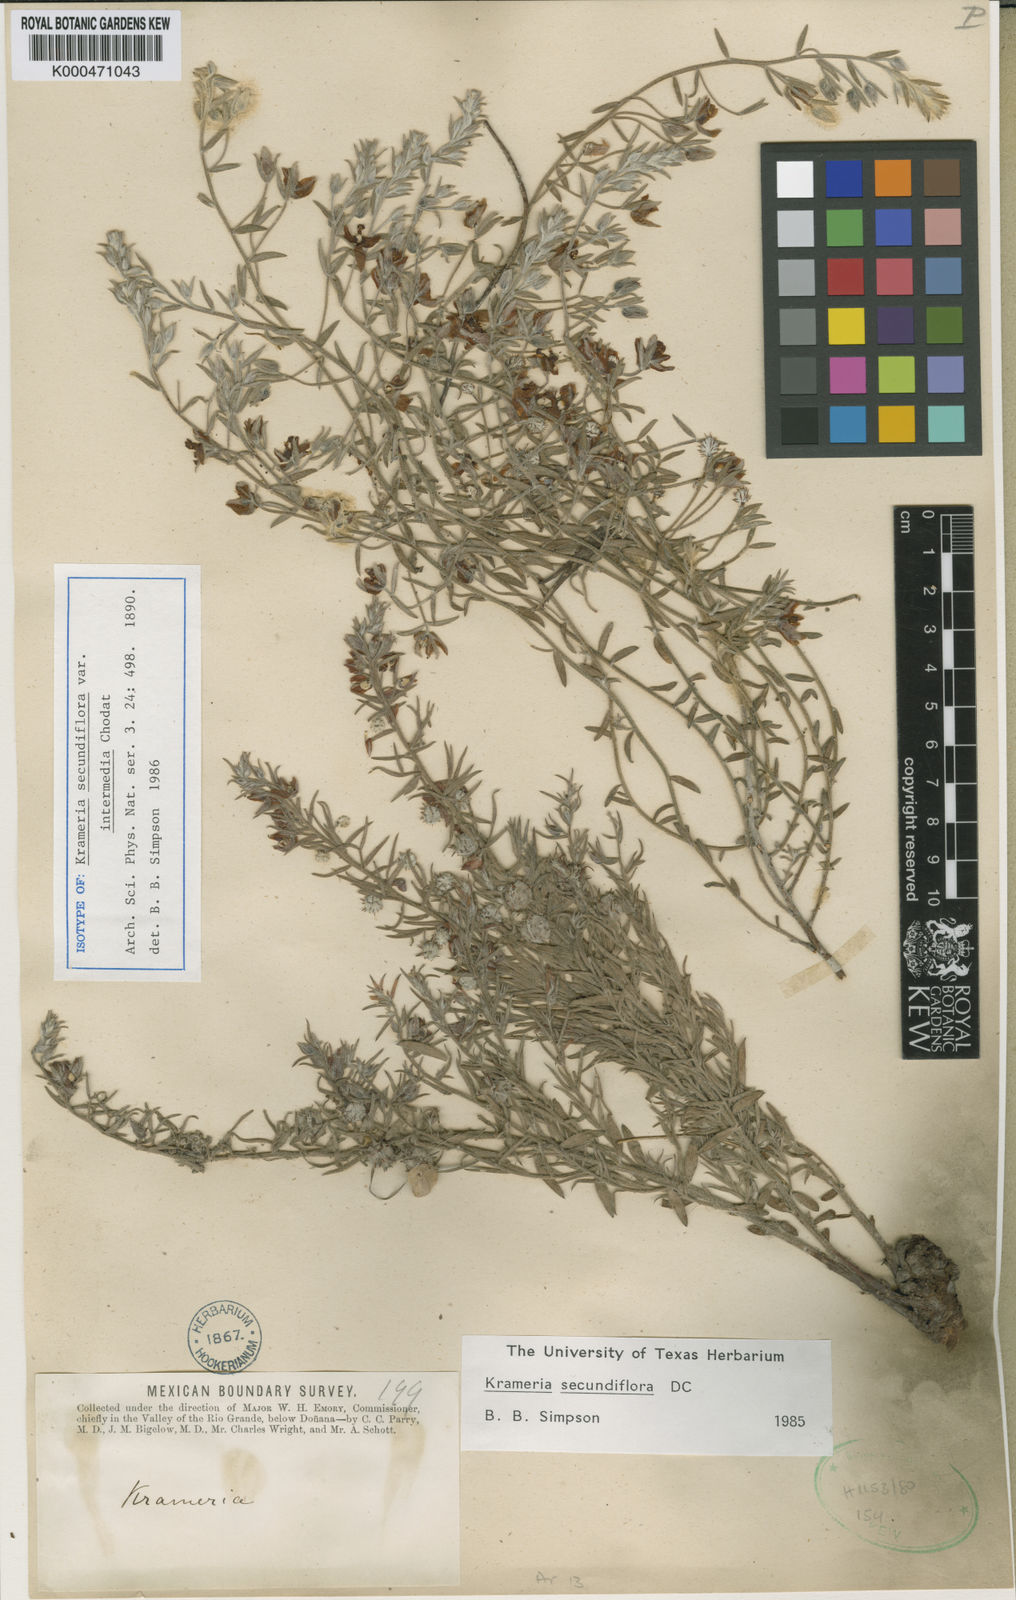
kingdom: Plantae
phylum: Tracheophyta
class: Magnoliopsida
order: Zygophyllales
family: Krameriaceae
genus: Krameria
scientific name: Krameria lanceolata
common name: Ratany
